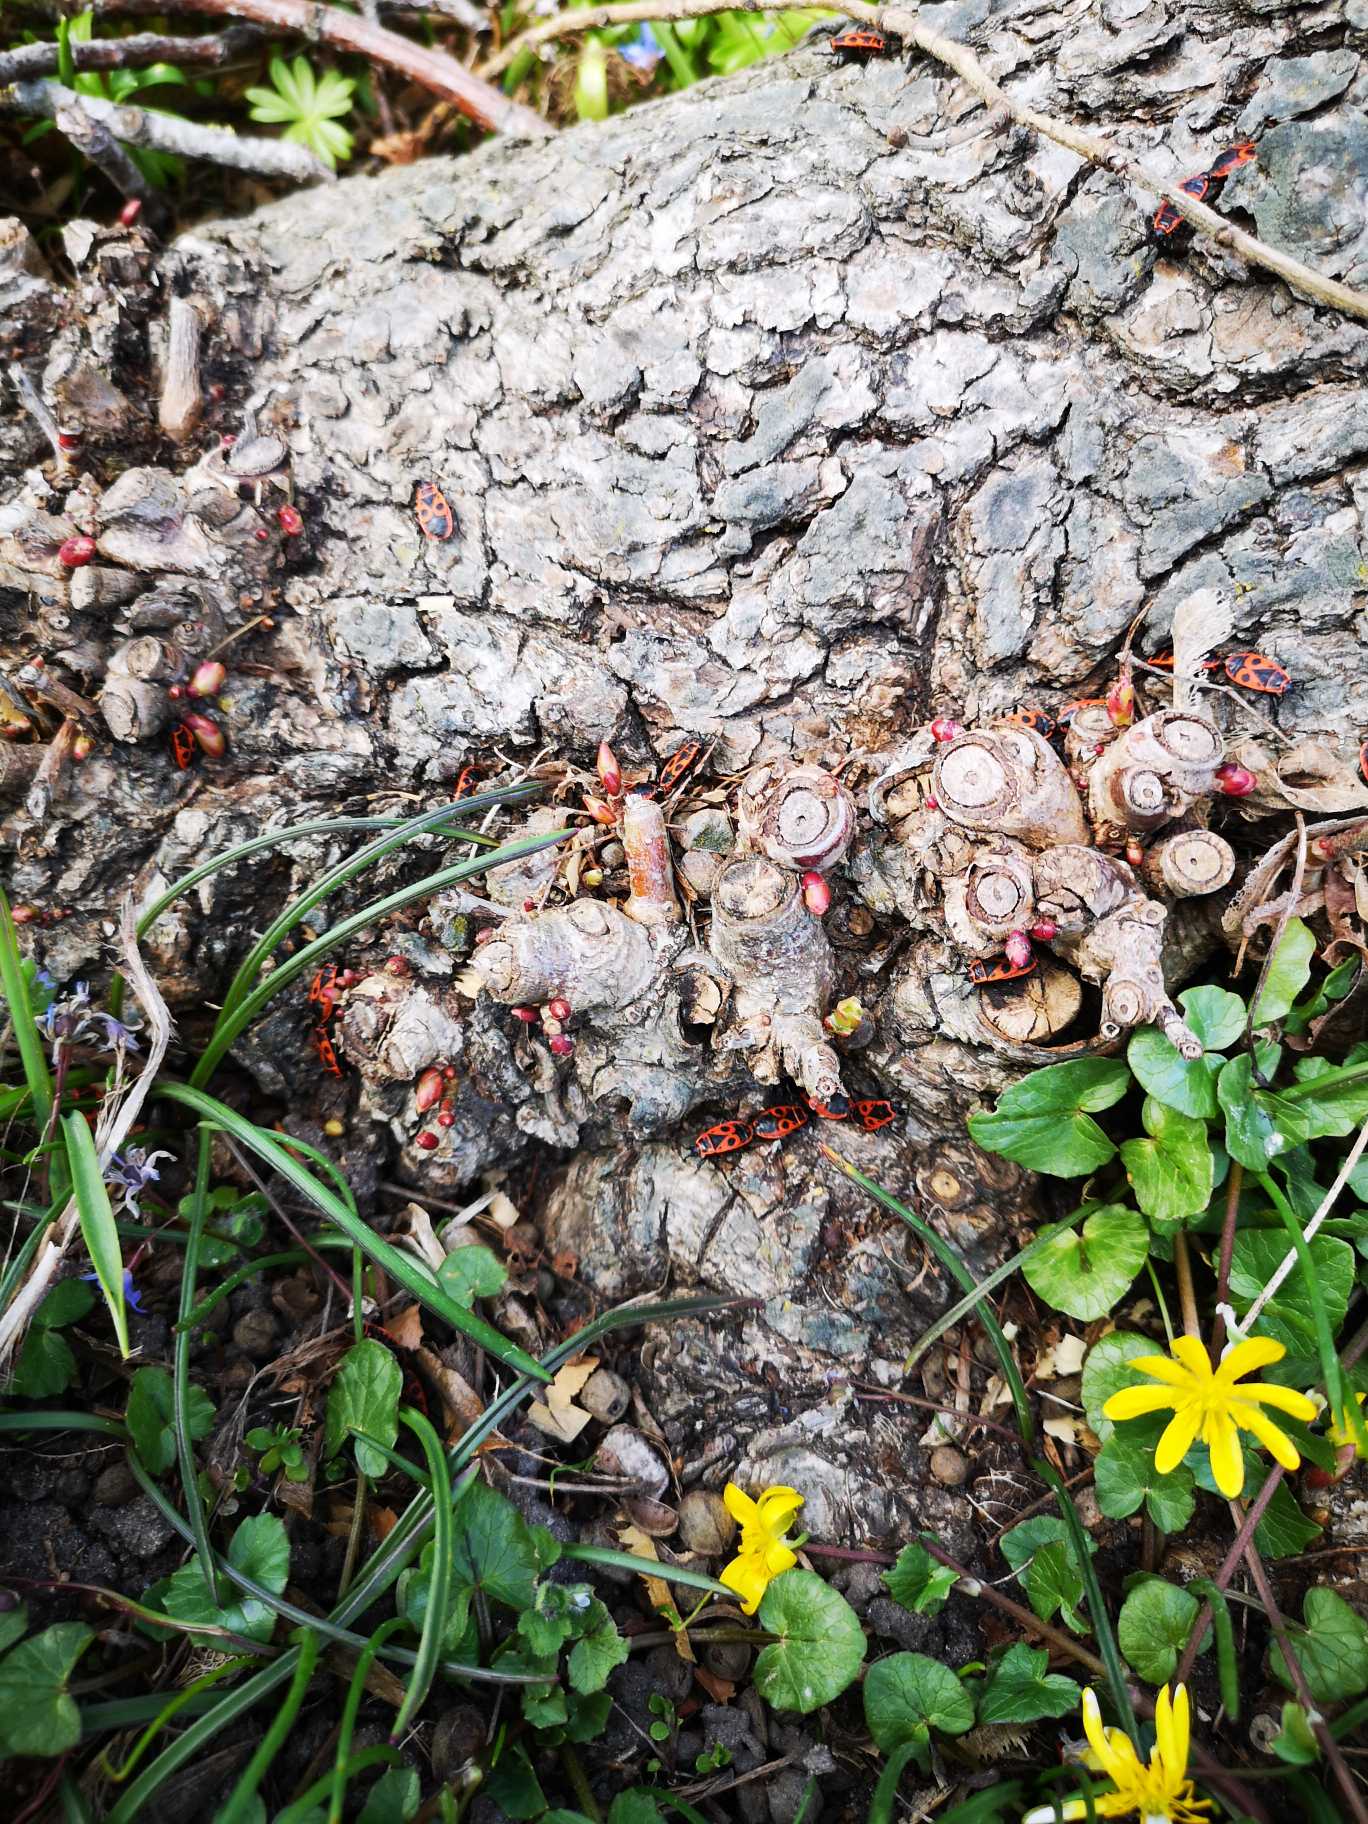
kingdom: Animalia
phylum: Arthropoda
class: Insecta
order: Hemiptera
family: Pyrrhocoridae
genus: Pyrrhocoris
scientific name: Pyrrhocoris apterus
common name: Ildtæge
